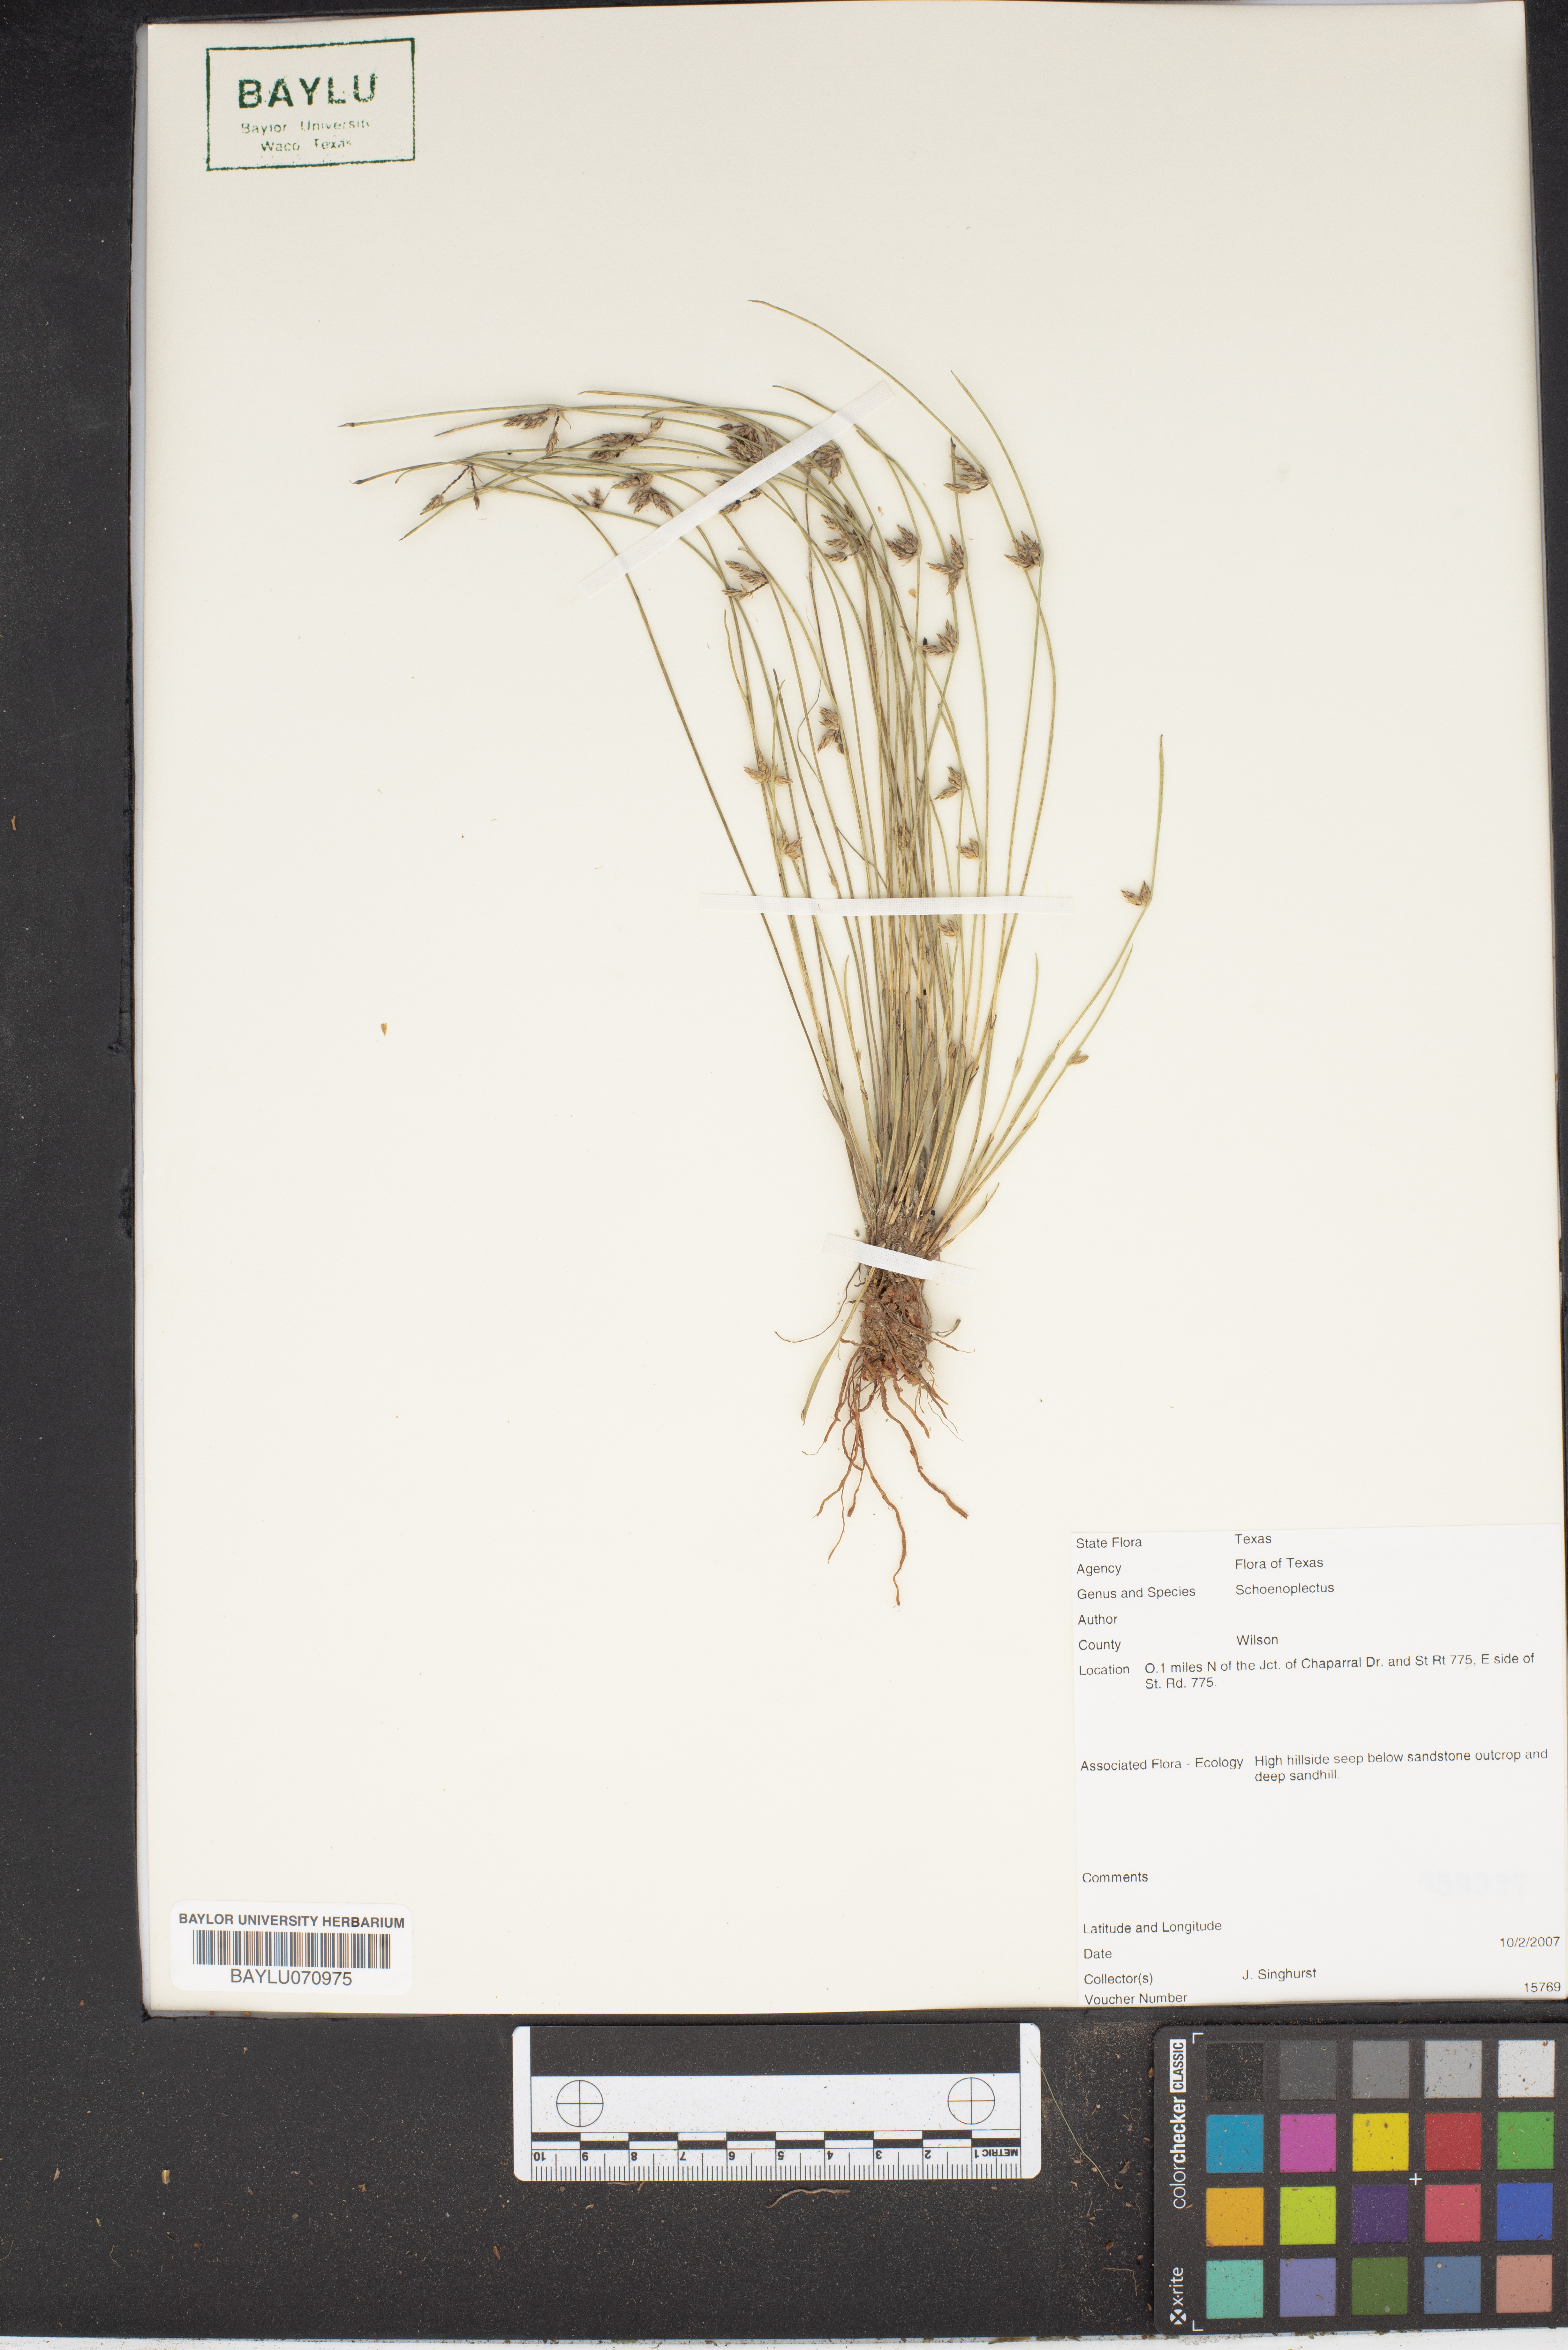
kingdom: Plantae
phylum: Tracheophyta
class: Liliopsida
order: Poales
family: Cyperaceae
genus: Schoenoplectus
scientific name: Schoenoplectus
